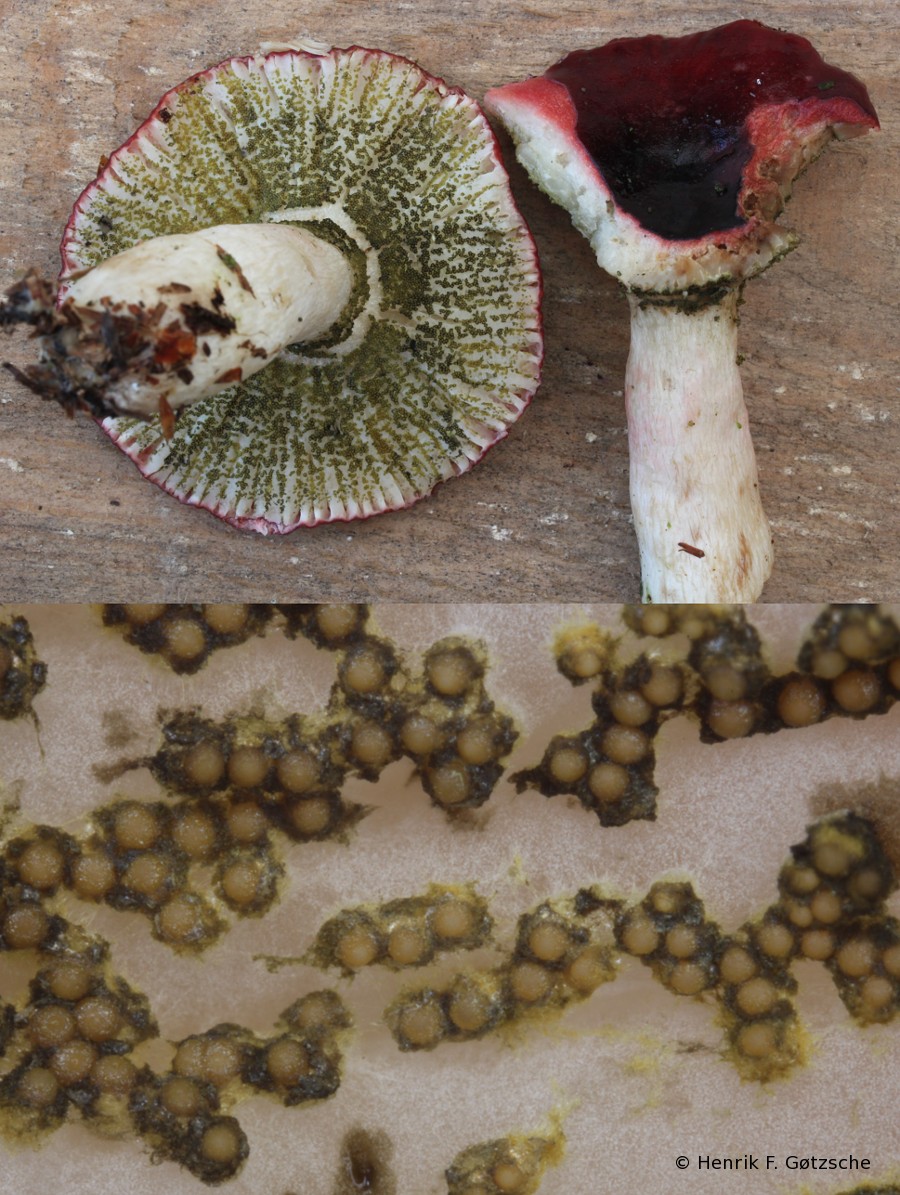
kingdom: Fungi
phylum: Ascomycota
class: Sordariomycetes
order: Hypocreales
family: Hypocreaceae
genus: Hypomyces
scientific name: Hypomyces luteovirens
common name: gulgrøn snylteskorpe
